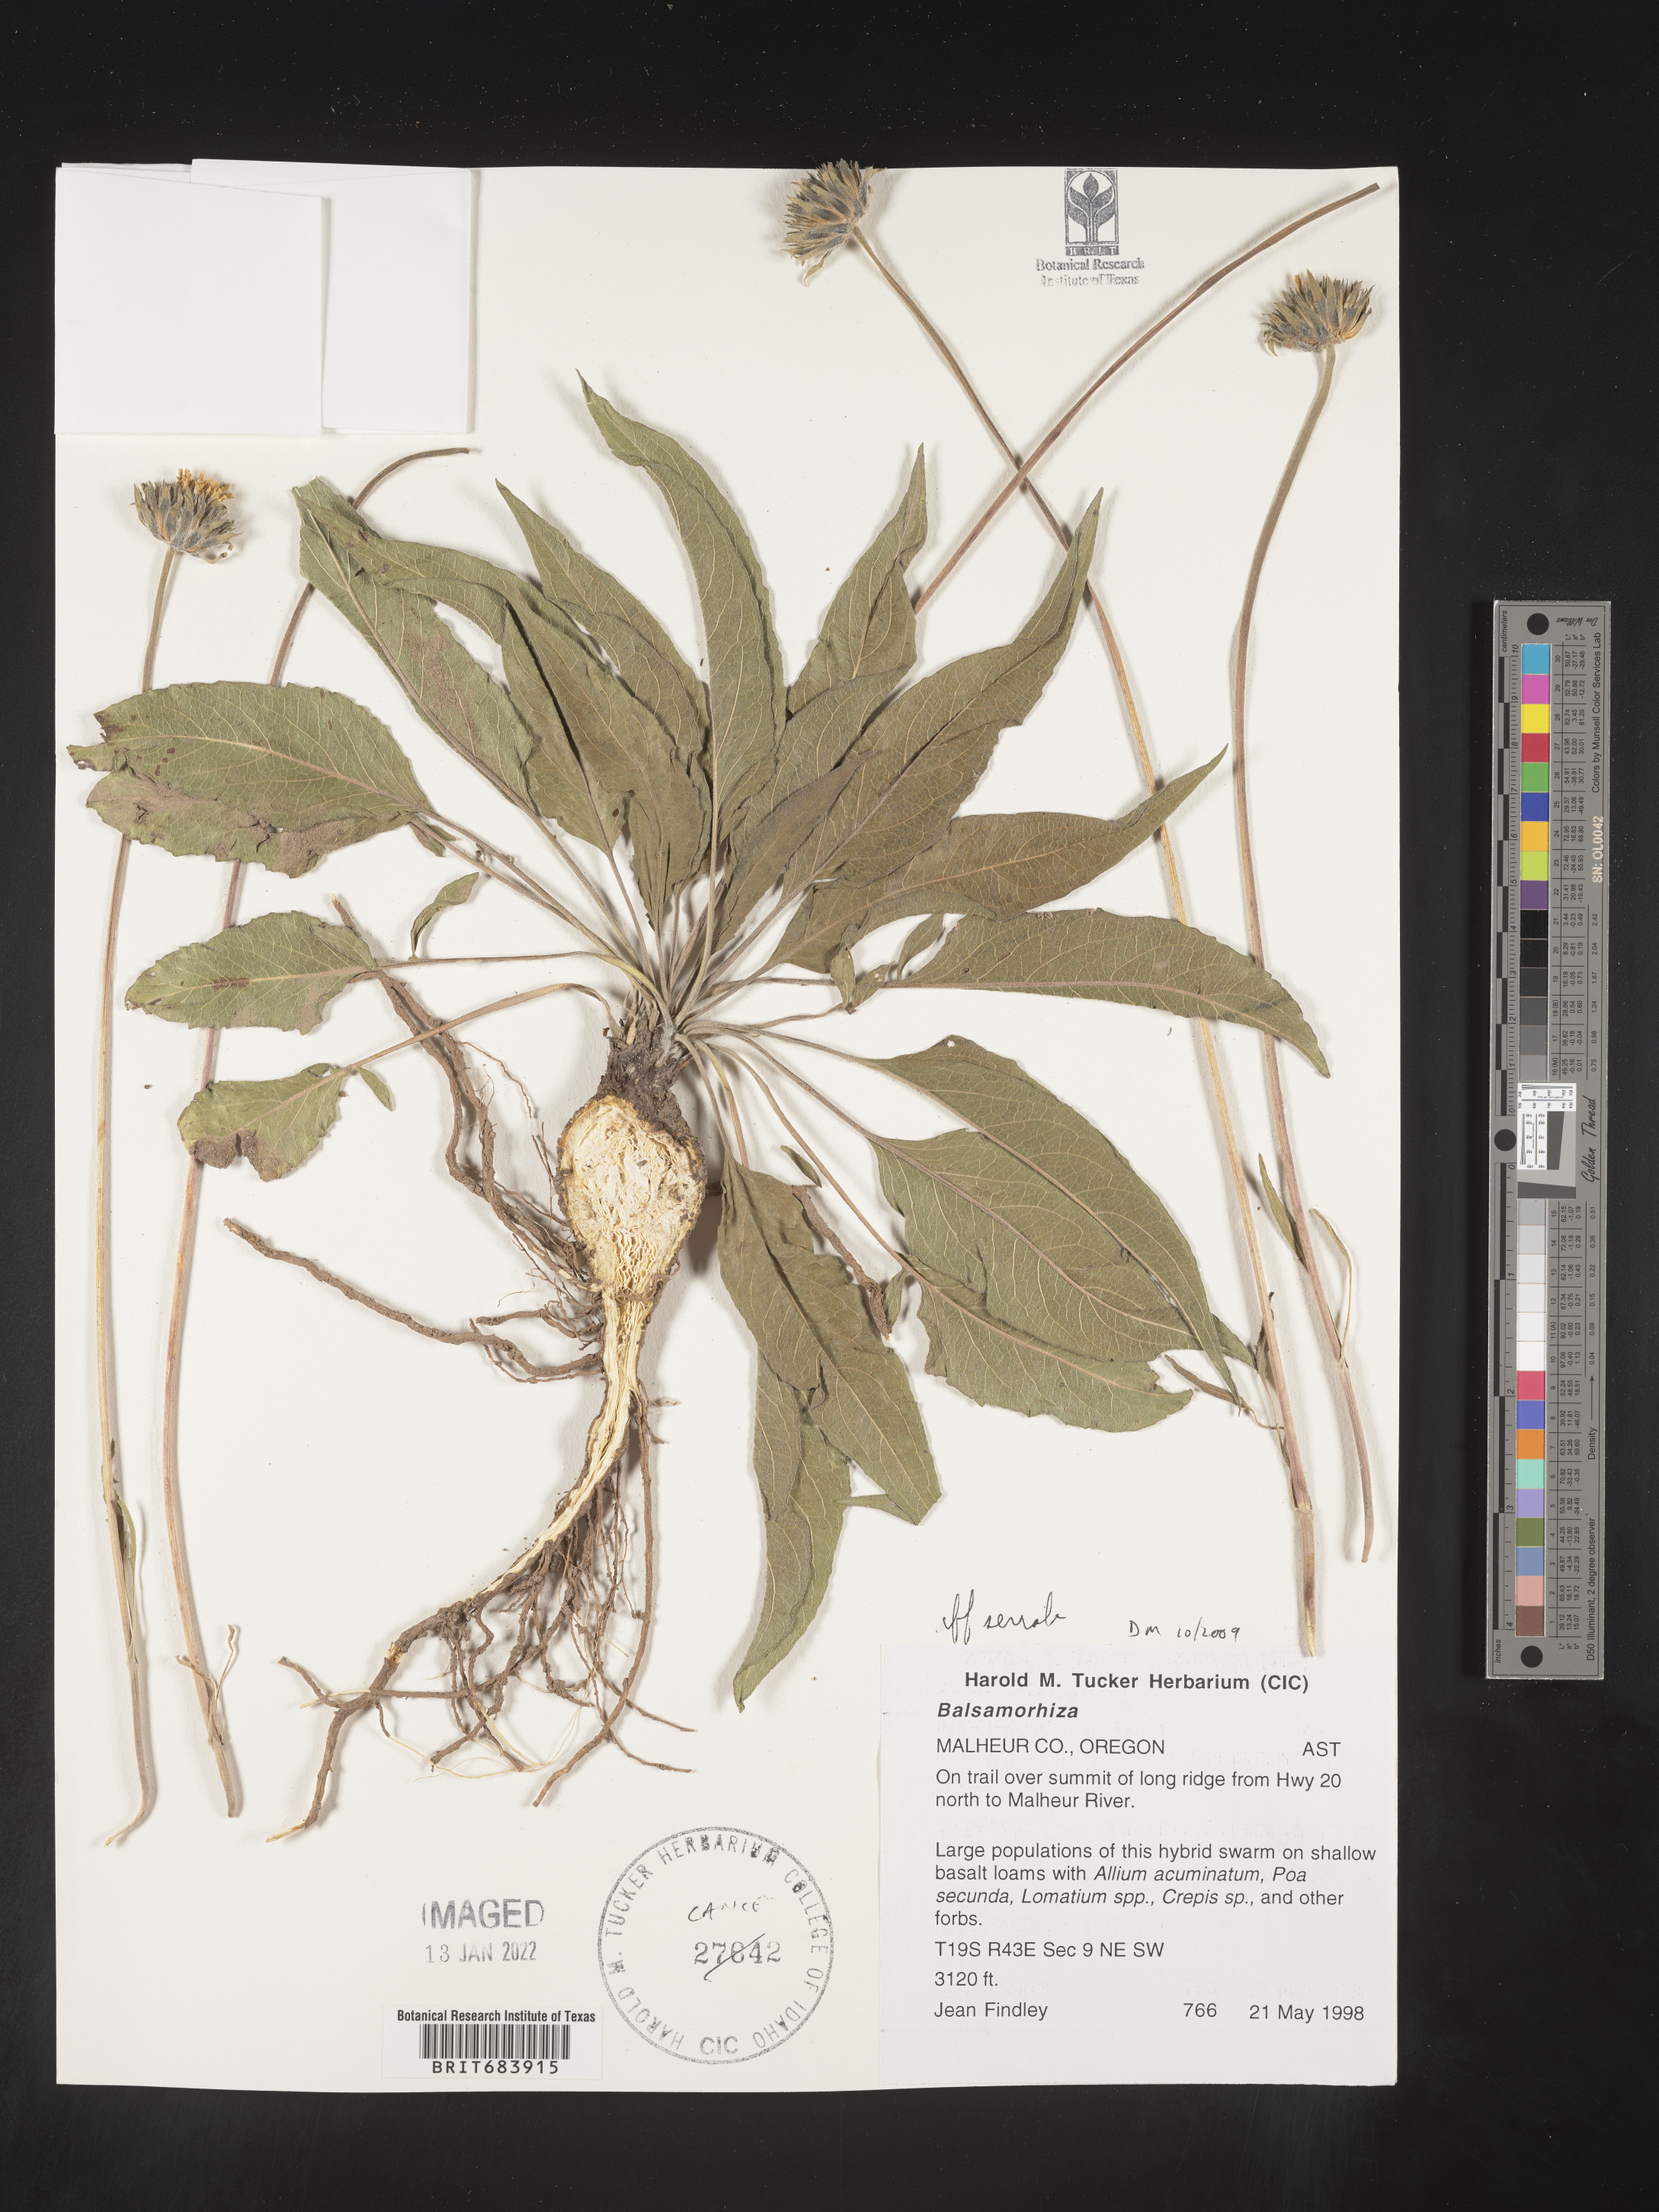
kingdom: Plantae
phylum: Tracheophyta
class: Magnoliopsida
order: Asterales
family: Asteraceae
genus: Balsamorhiza
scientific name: Balsamorhiza serrata
